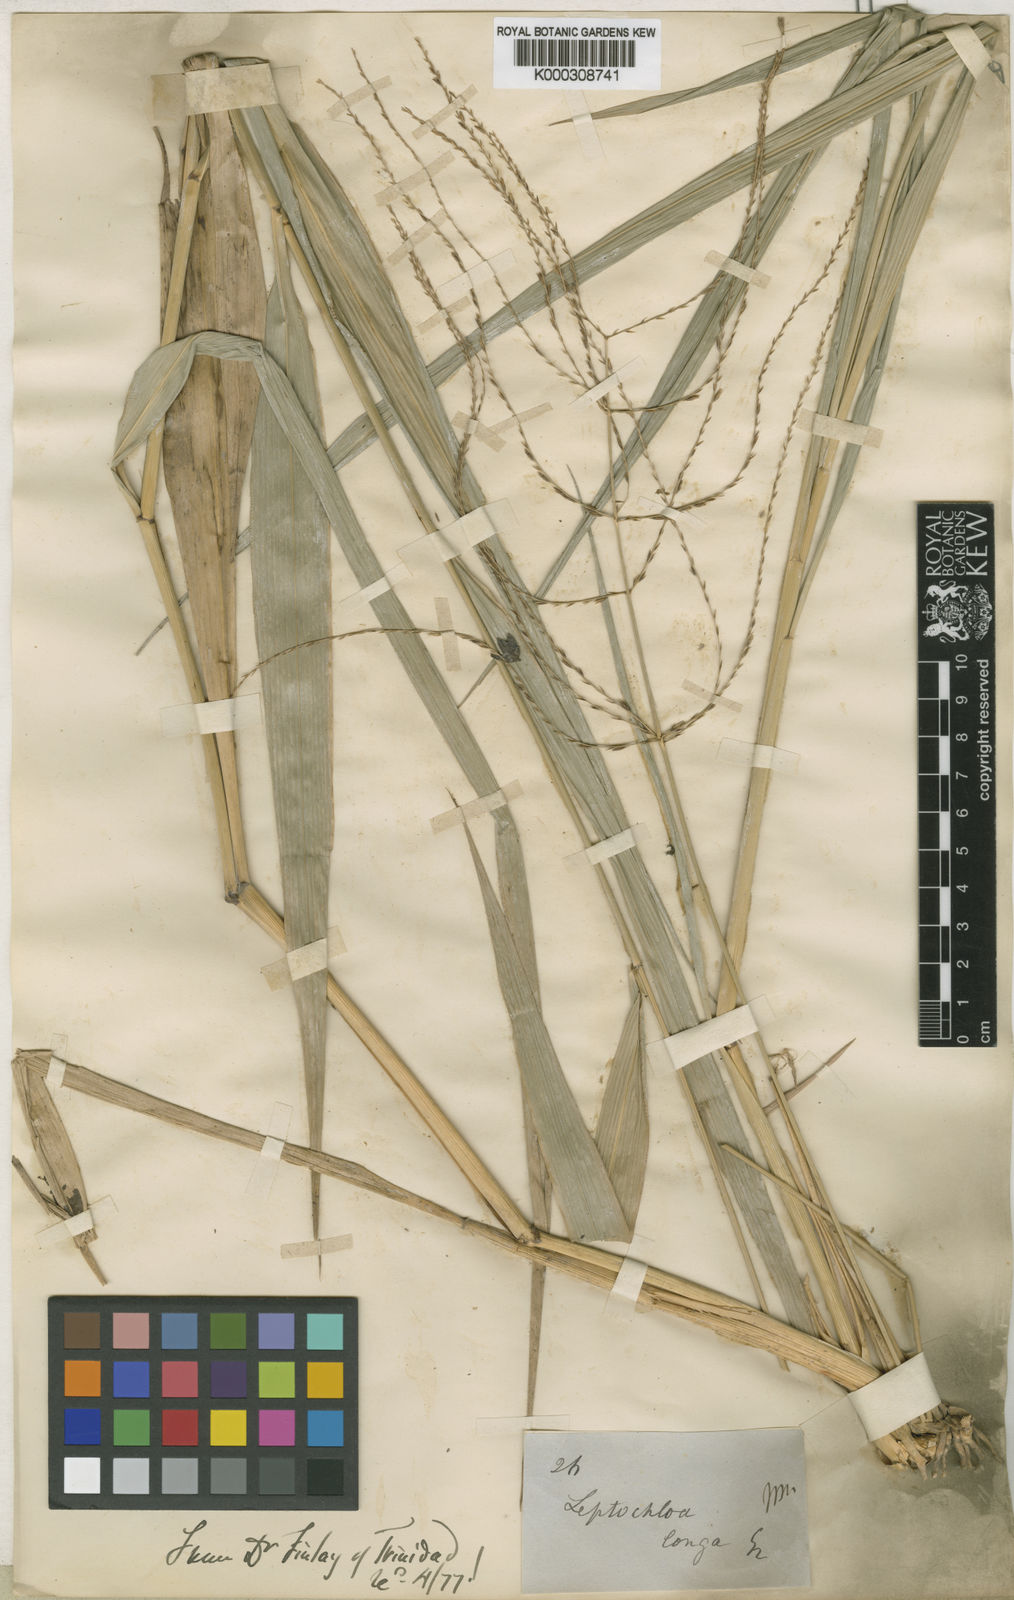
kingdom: Plantae
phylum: Tracheophyta
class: Liliopsida
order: Poales
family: Poaceae
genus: Leptochloa
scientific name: Leptochloa longa
